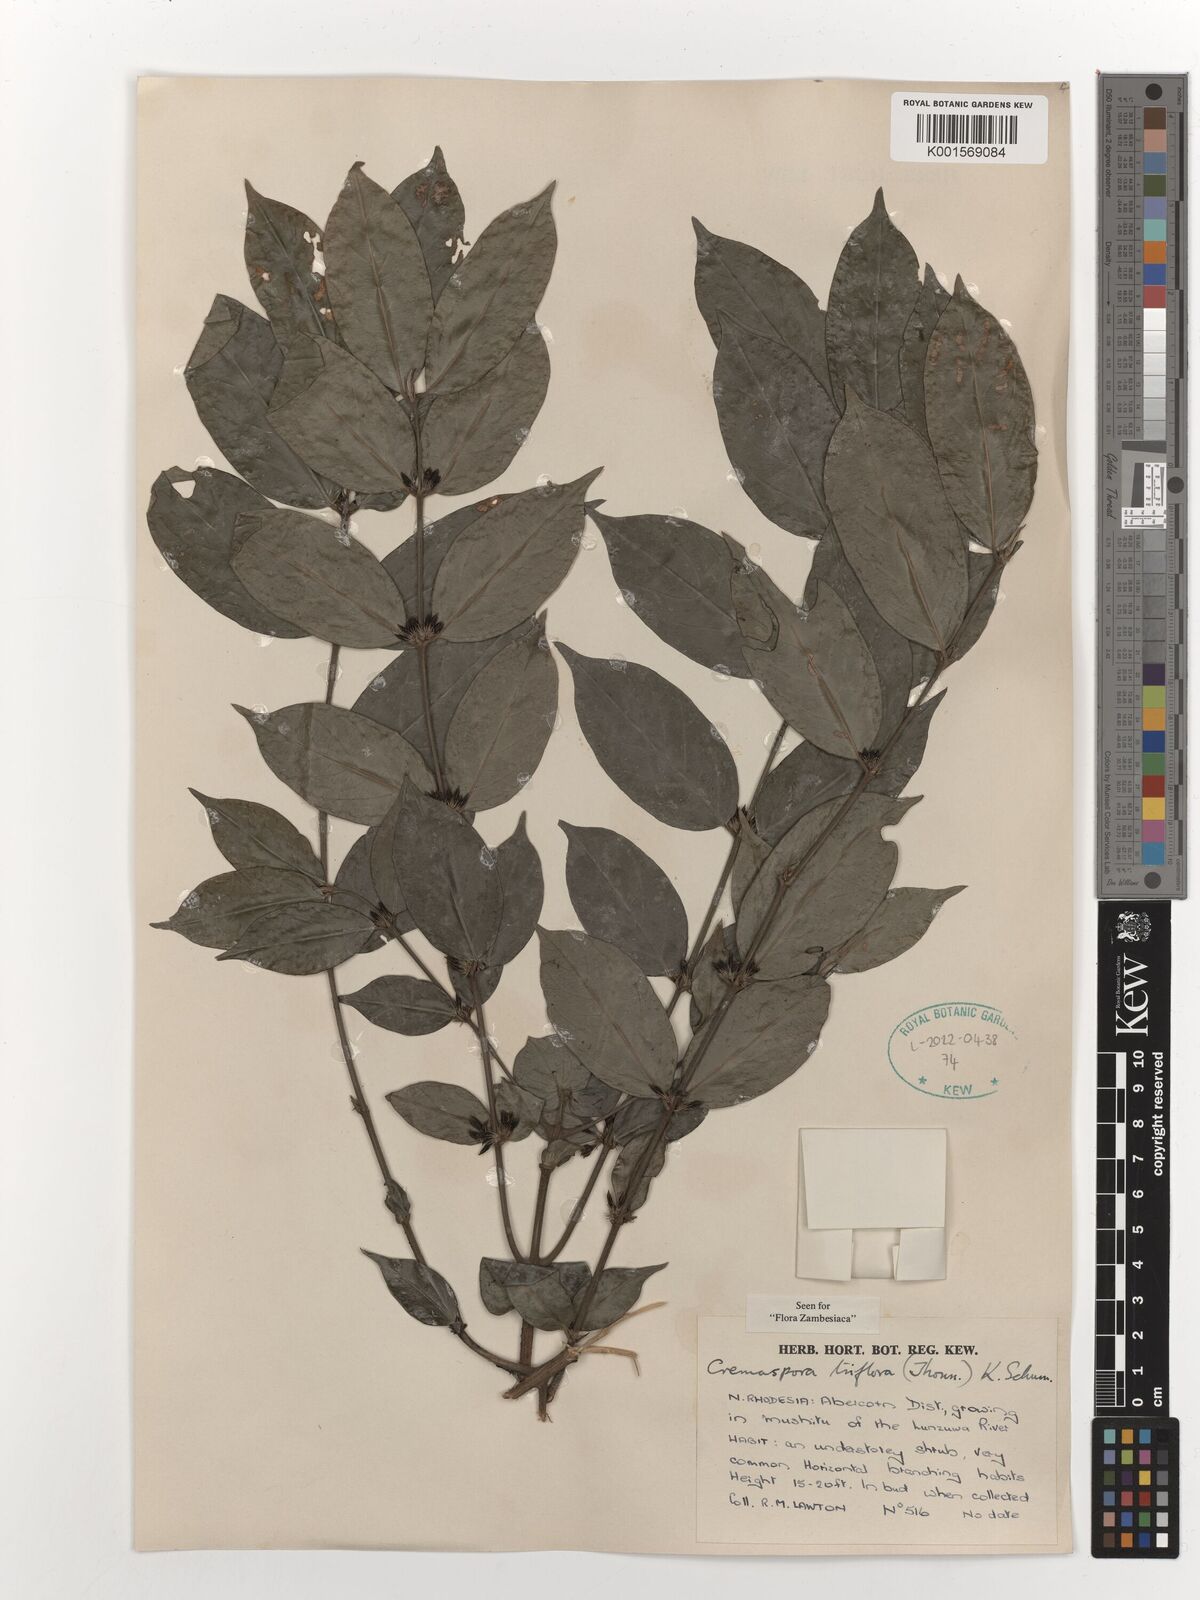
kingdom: Plantae
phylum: Tracheophyta
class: Magnoliopsida
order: Gentianales
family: Rubiaceae
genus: Cremaspora
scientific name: Cremaspora triflora
